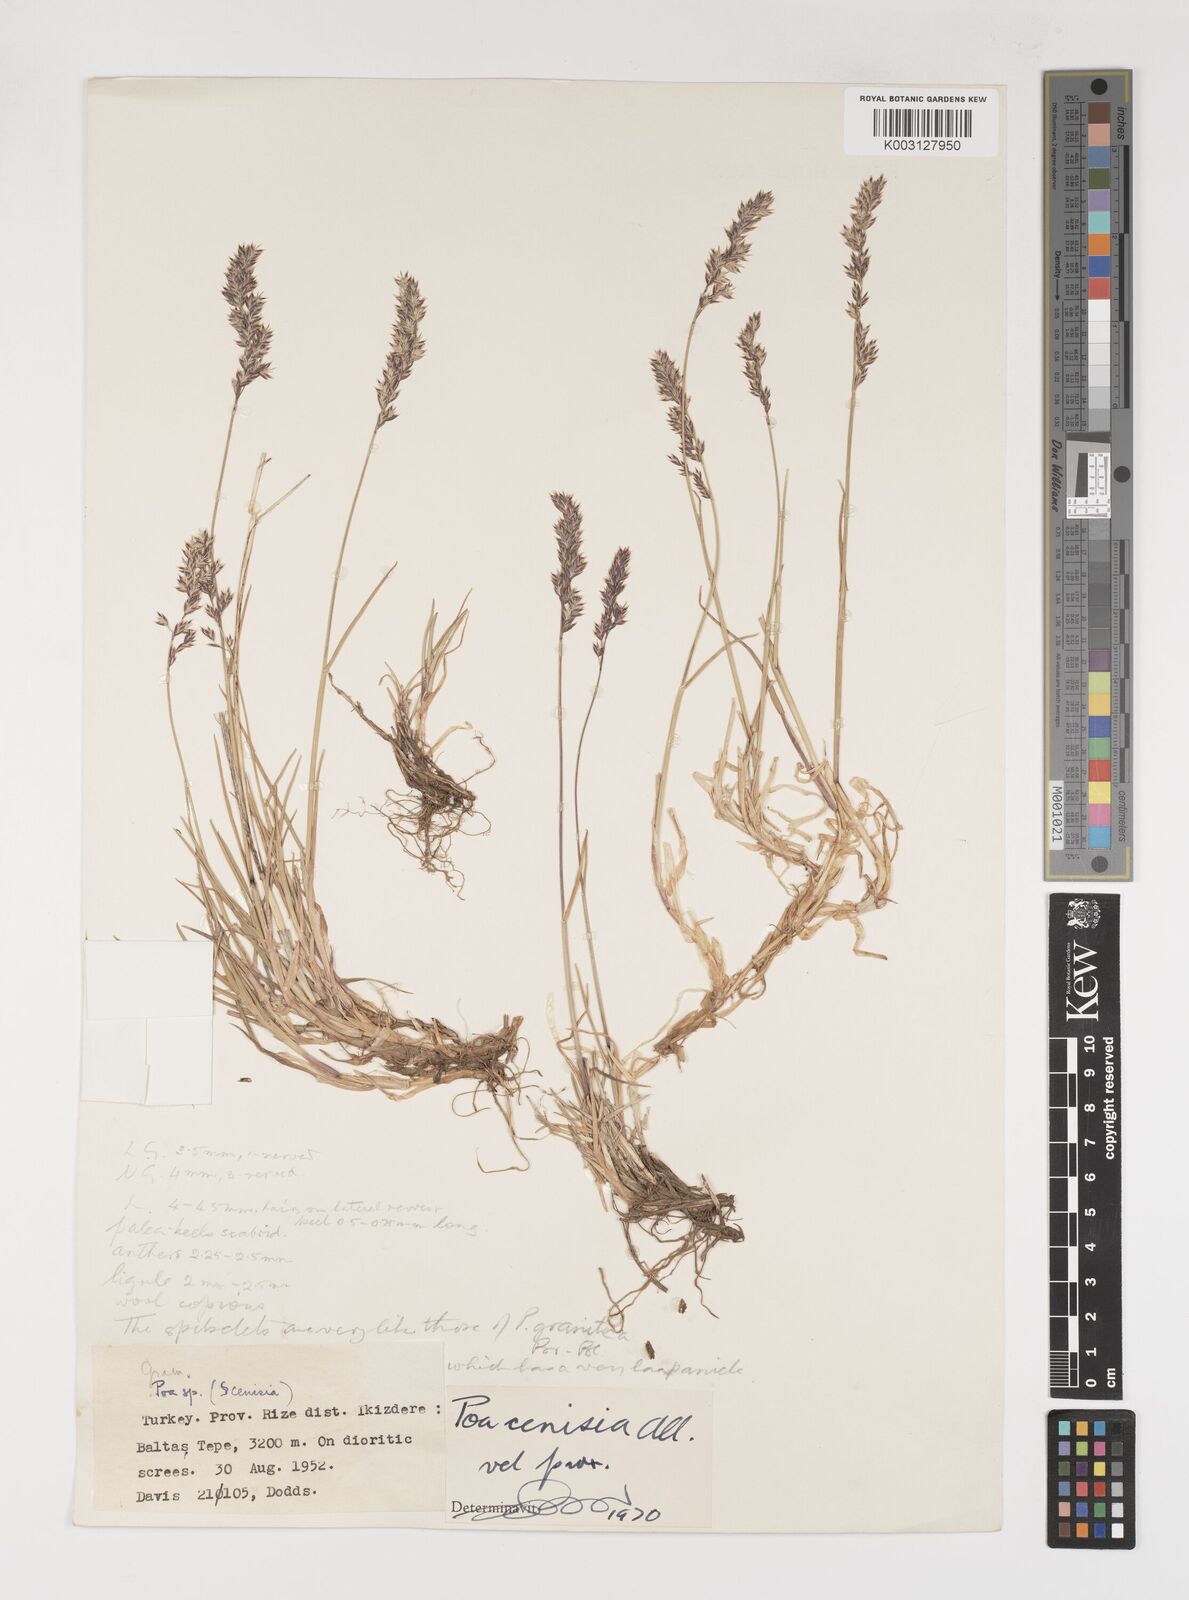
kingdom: Plantae
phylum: Tracheophyta
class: Liliopsida
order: Poales
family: Poaceae
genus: Poa
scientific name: Poa cenisia
